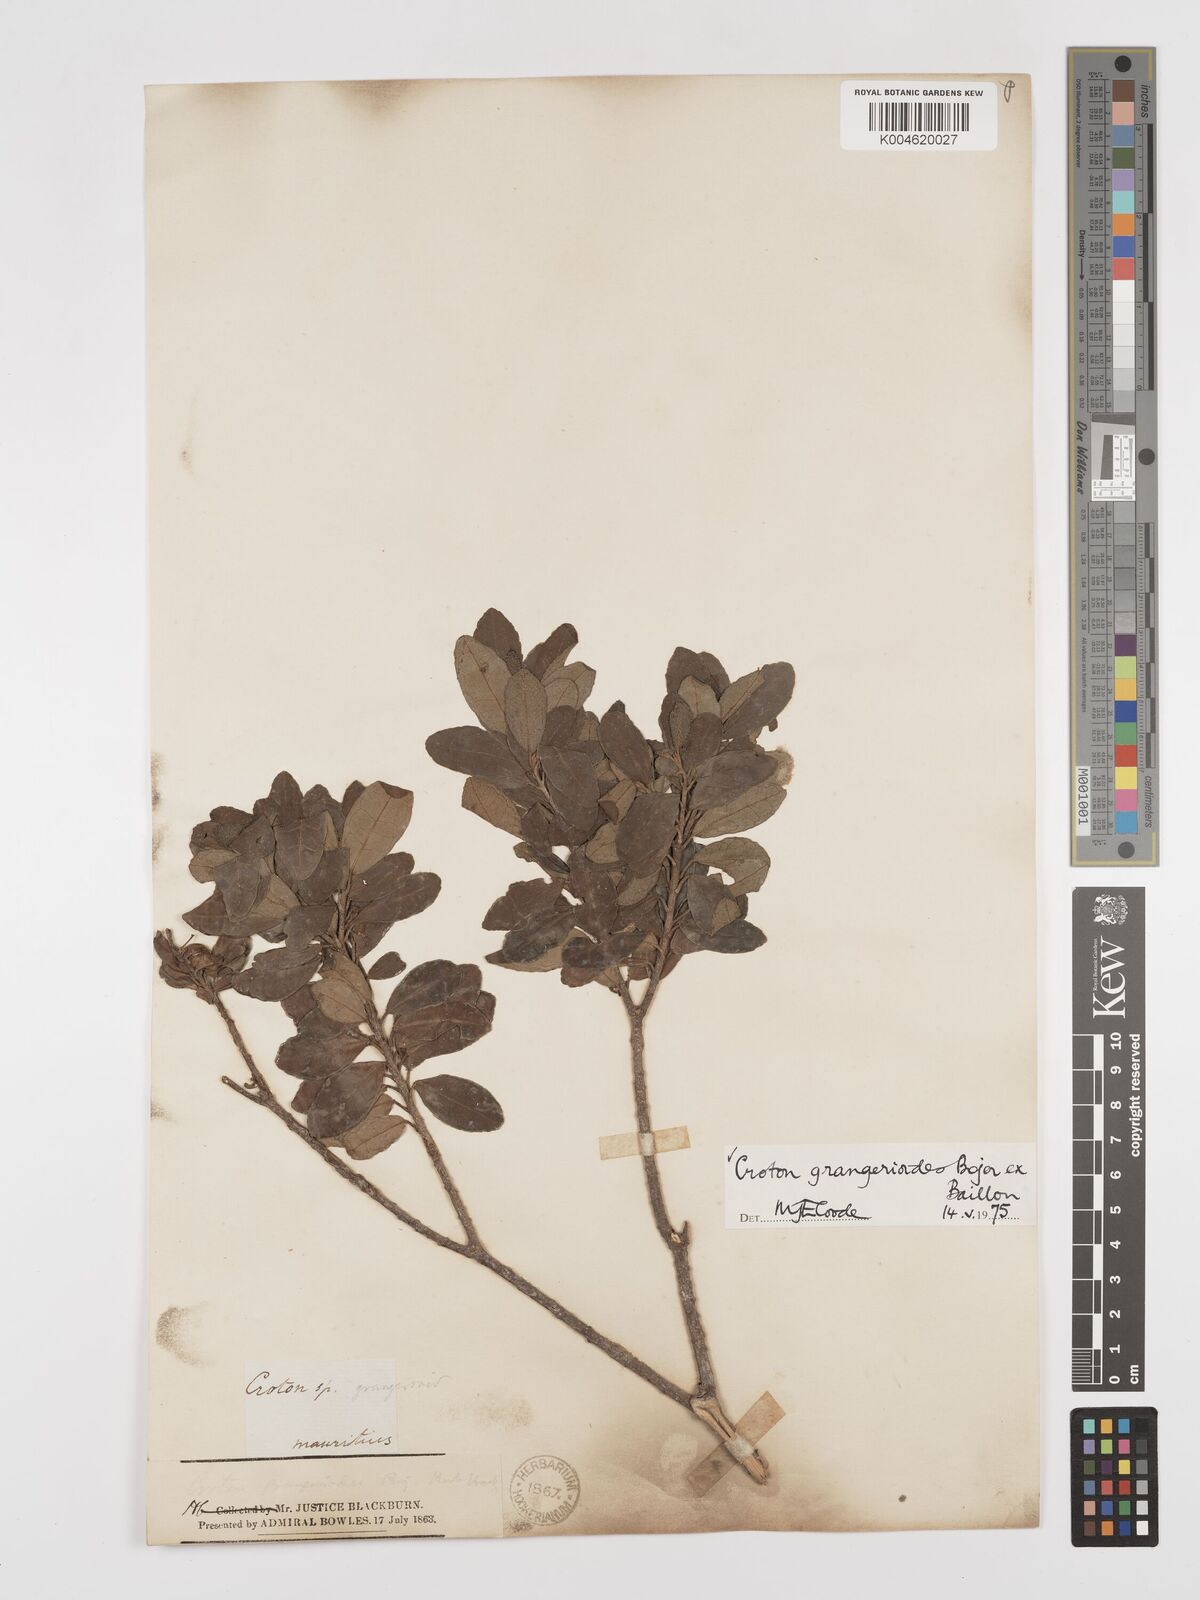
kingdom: Plantae
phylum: Tracheophyta
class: Magnoliopsida
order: Malpighiales
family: Euphorbiaceae
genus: Croton
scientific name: Croton grangerioides
